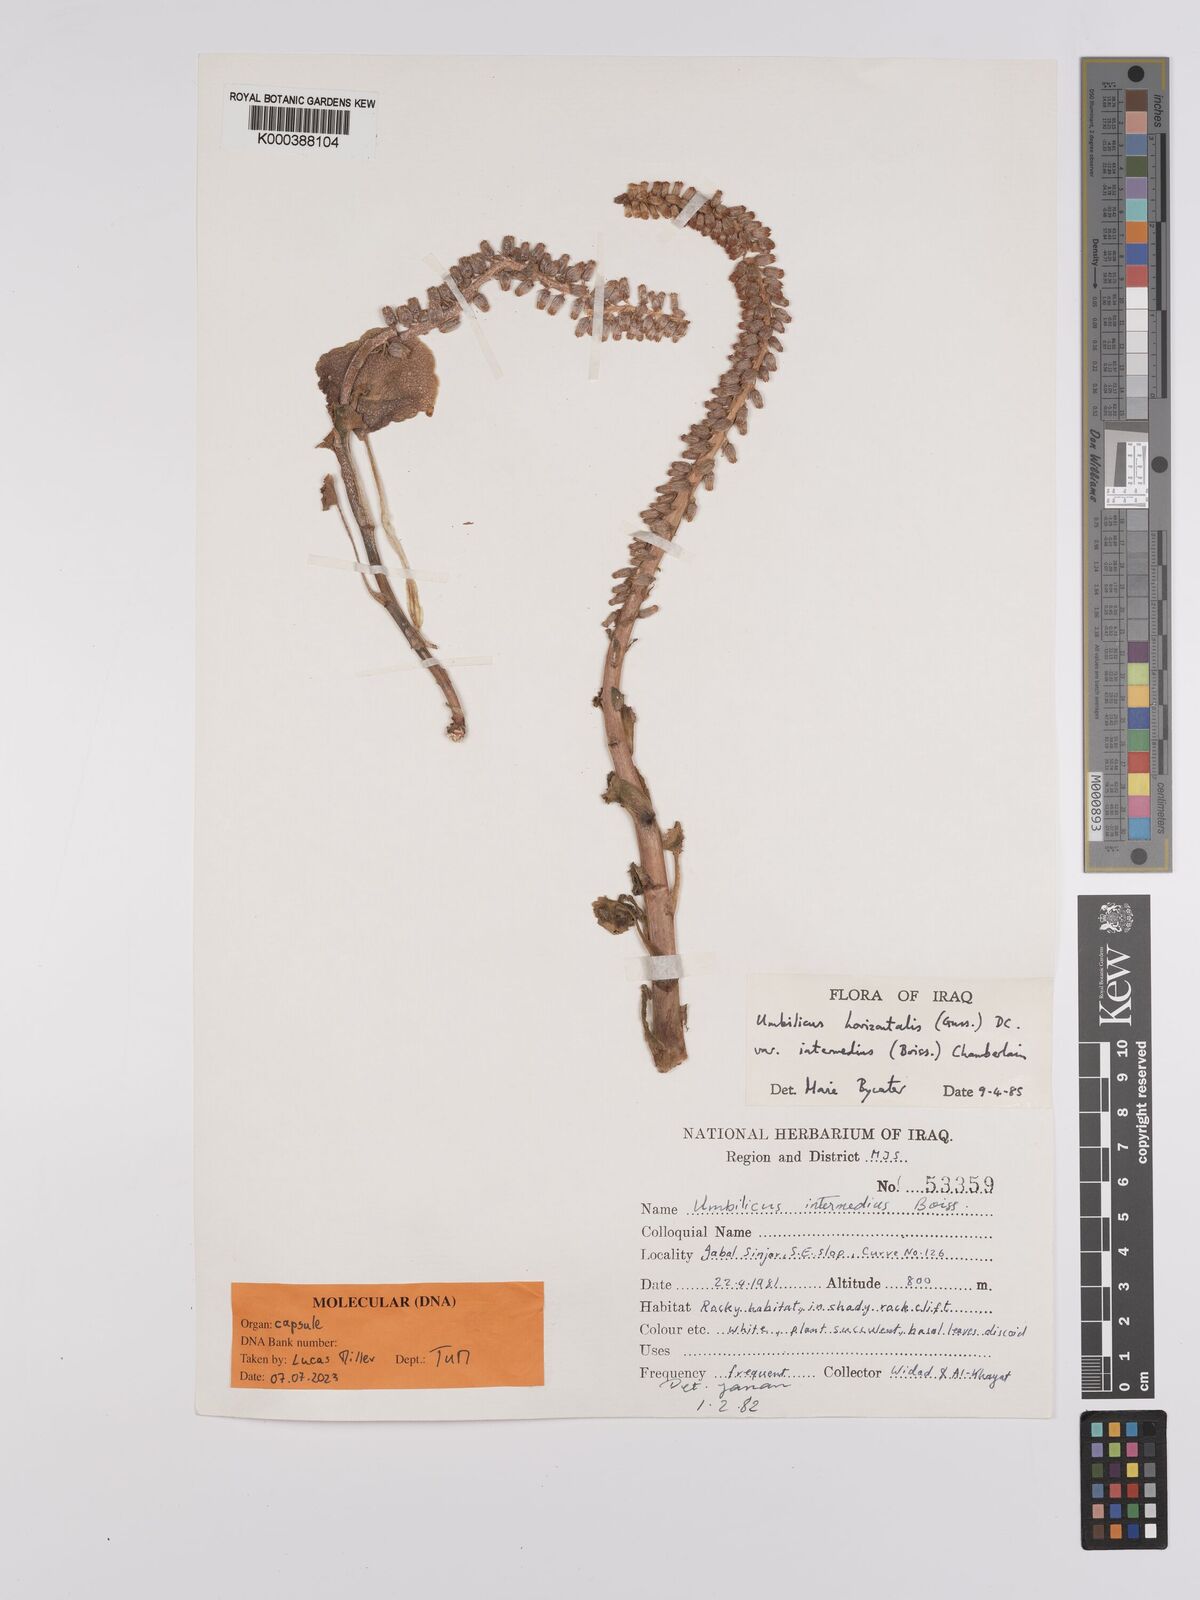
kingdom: Plantae
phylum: Tracheophyta
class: Magnoliopsida
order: Saxifragales
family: Crassulaceae
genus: Umbilicus
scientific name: Umbilicus horizontalis
